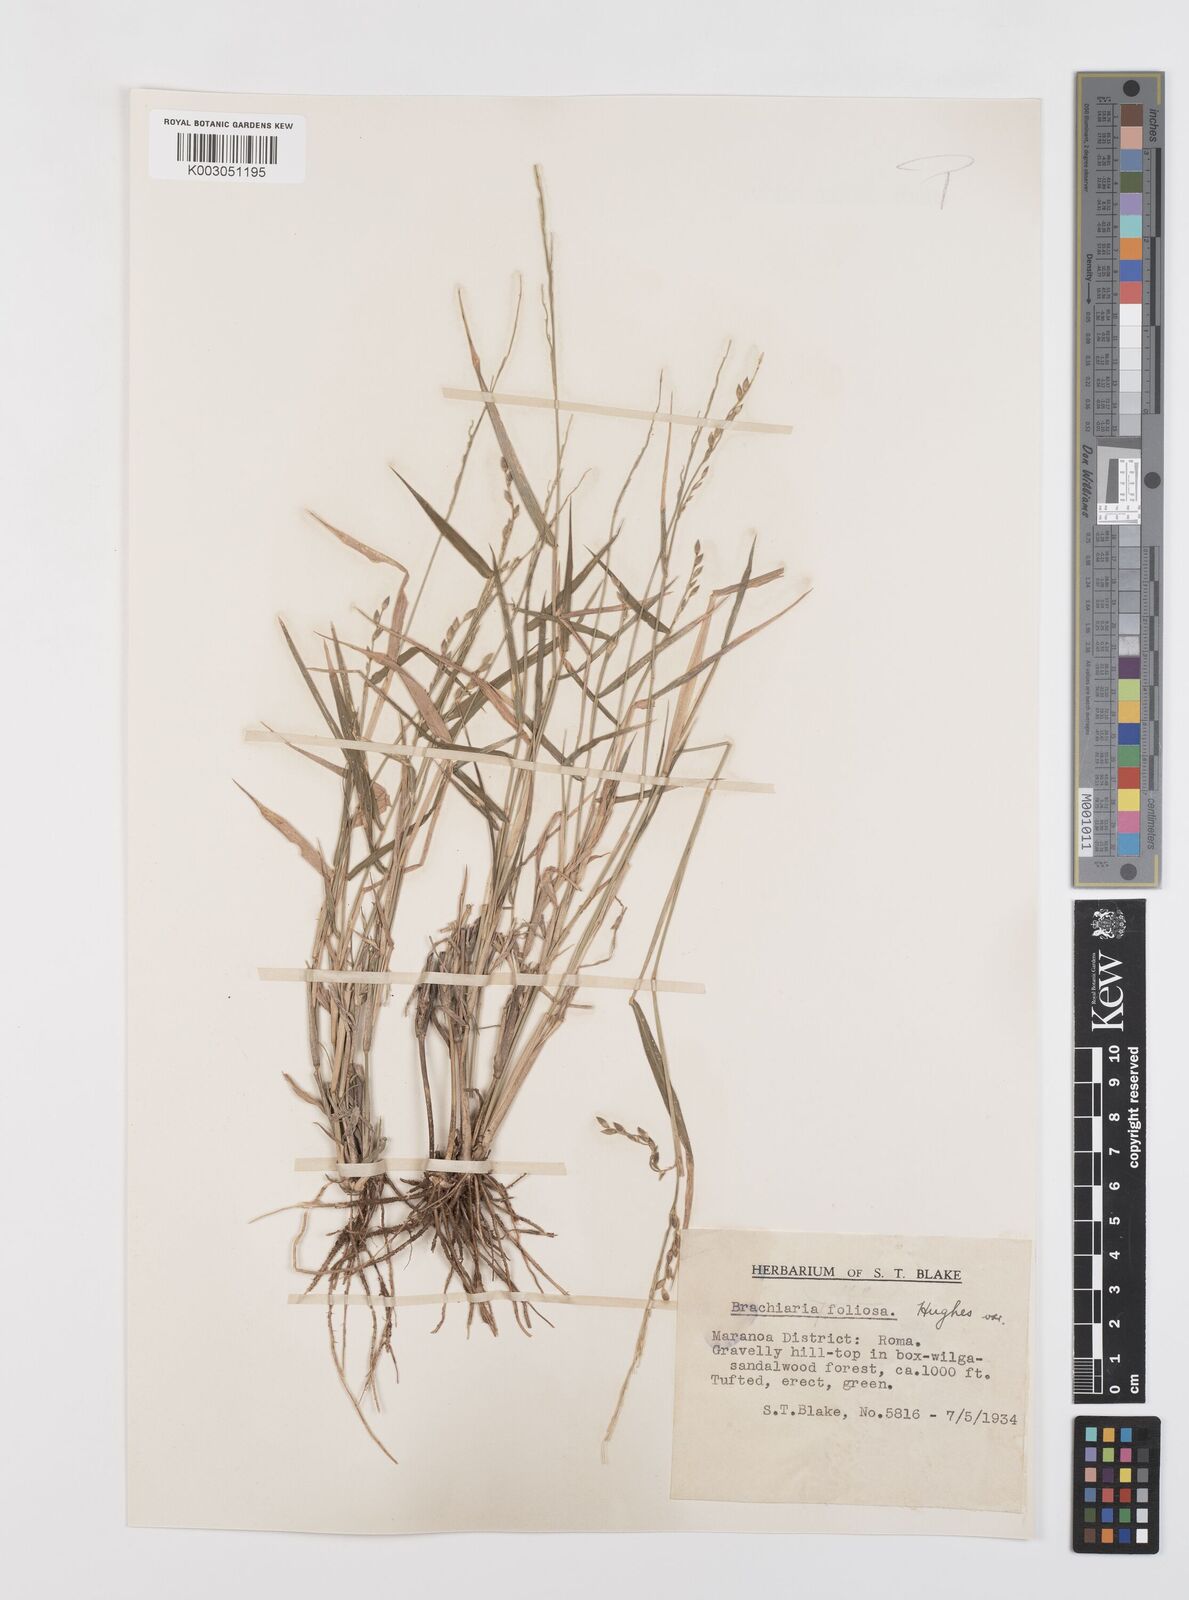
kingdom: Plantae
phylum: Tracheophyta
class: Liliopsida
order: Poales
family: Poaceae
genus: Urochloa
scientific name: Urochloa foliosa
